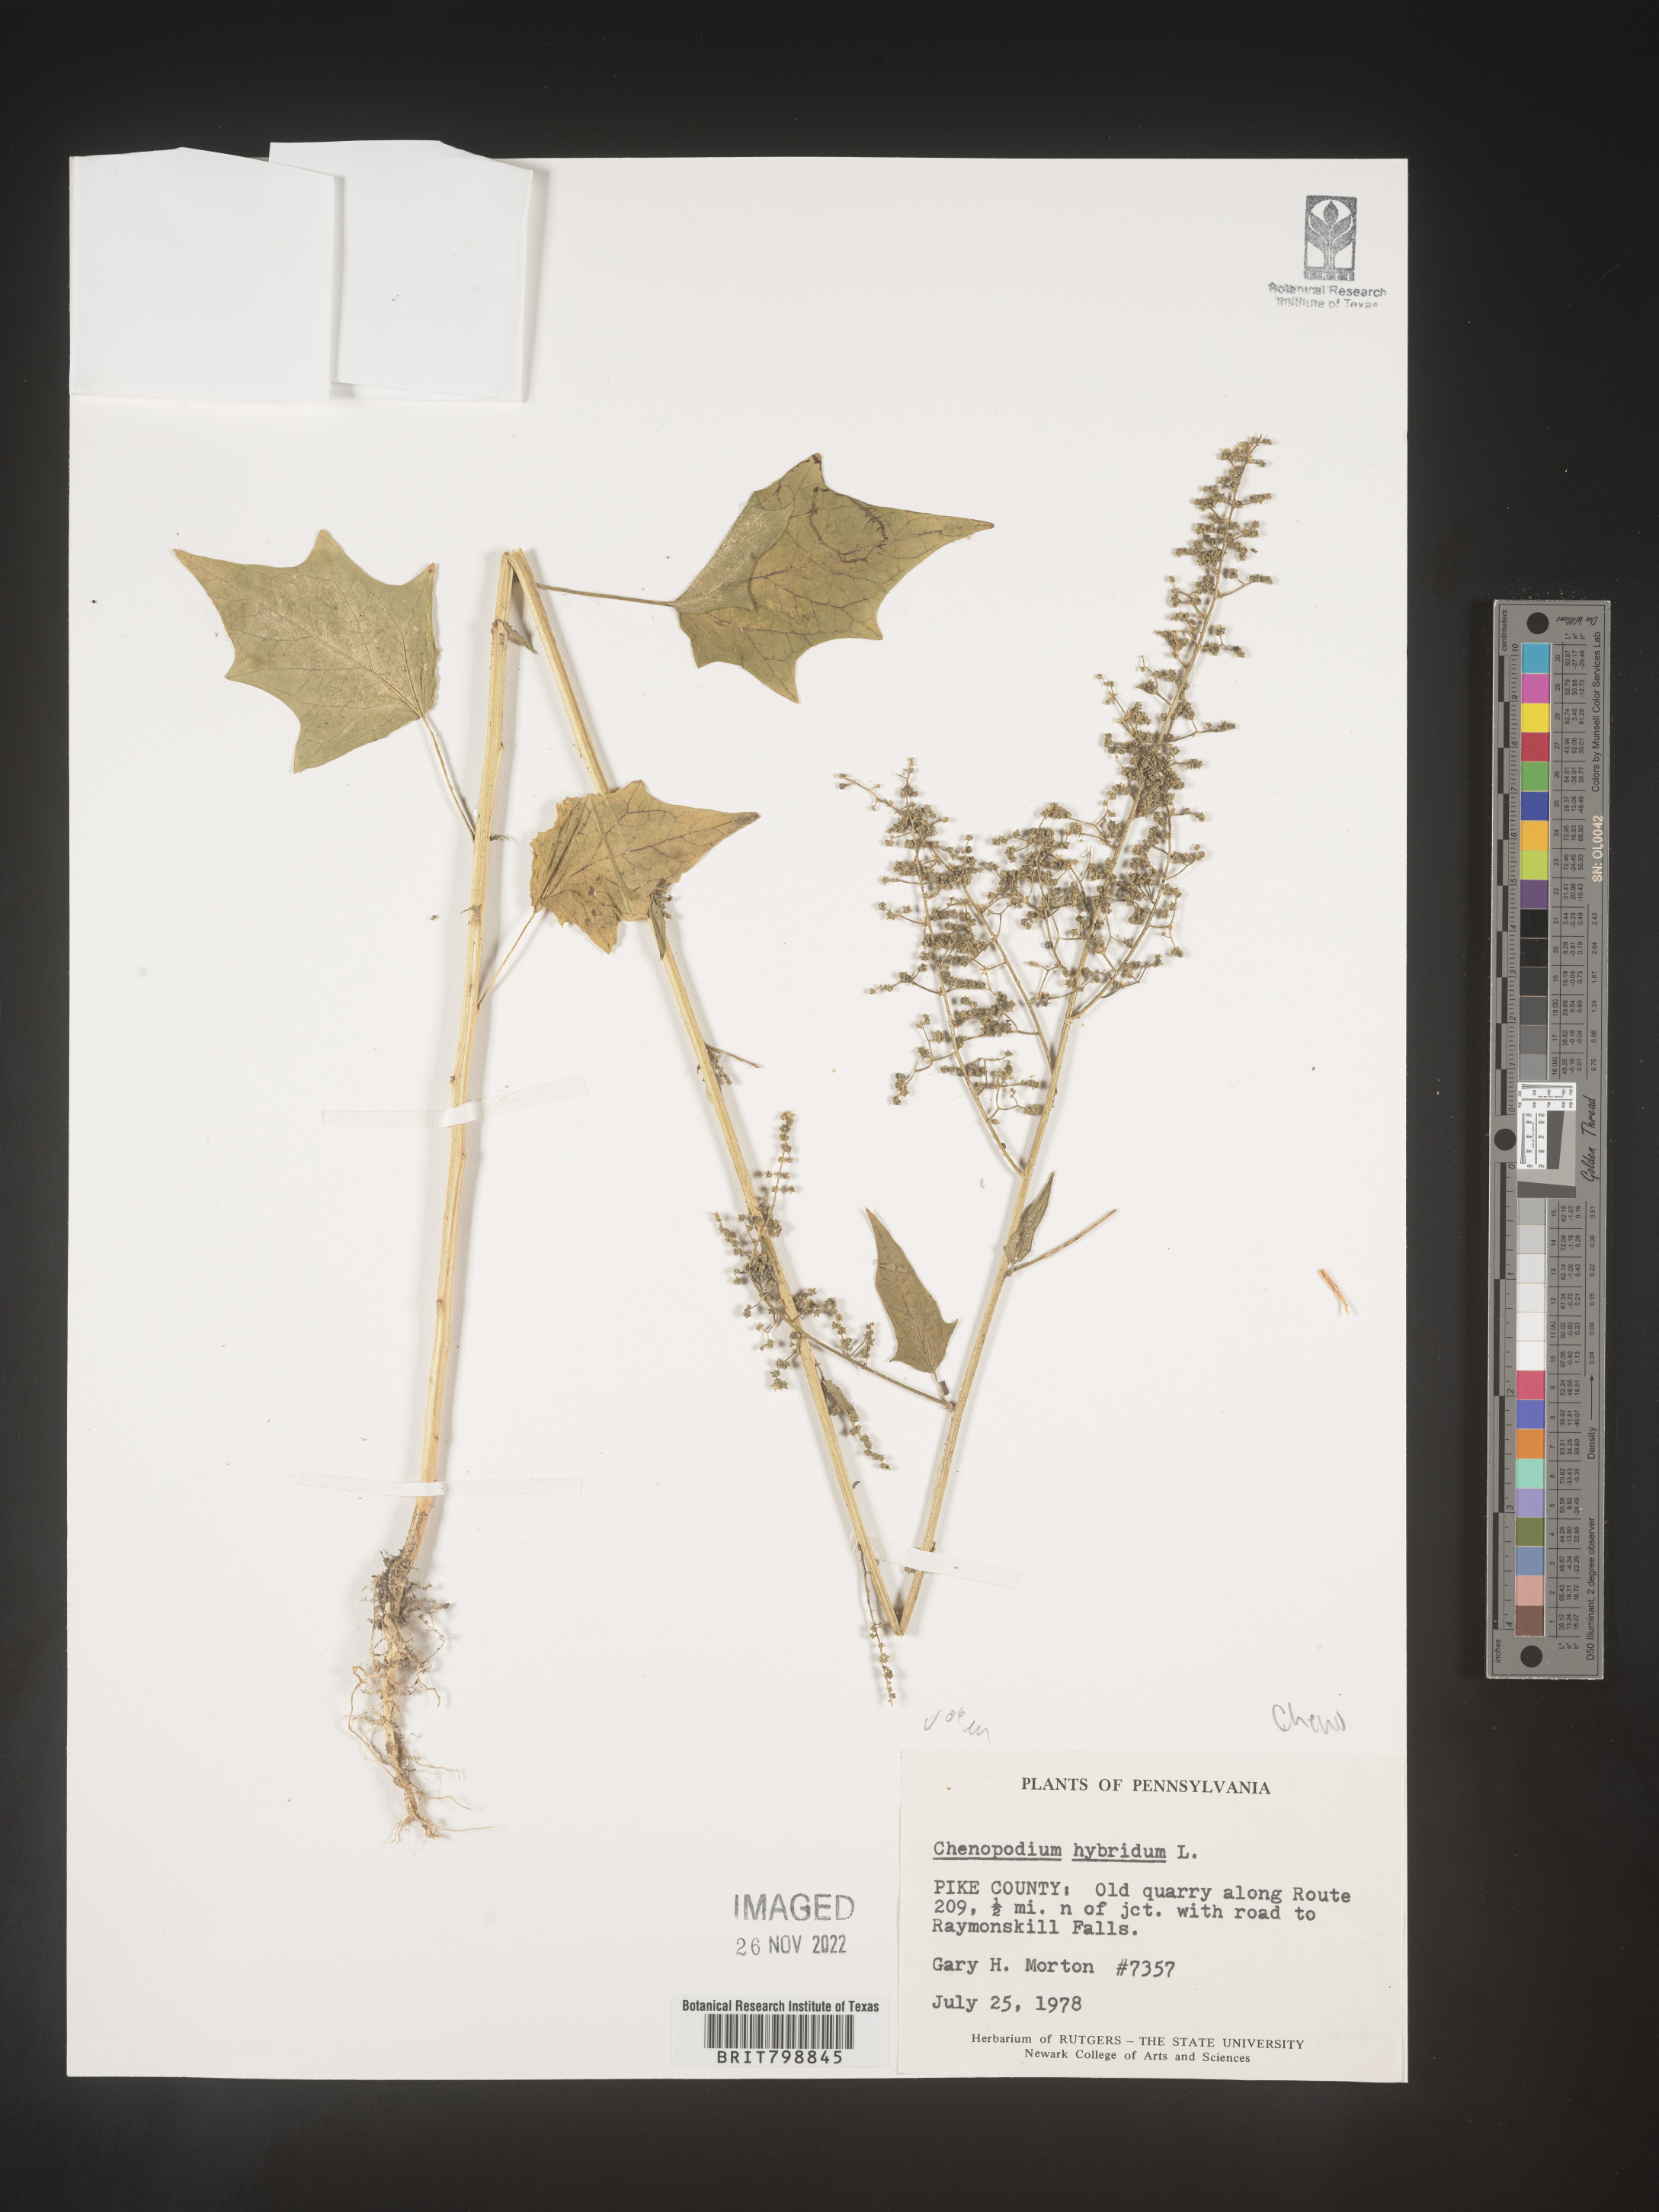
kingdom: Plantae
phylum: Tracheophyta
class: Magnoliopsida
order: Caryophyllales
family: Amaranthaceae
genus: Chenopodiastrum
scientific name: Chenopodiastrum hybridum
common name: Mapleleaf goosefoot
